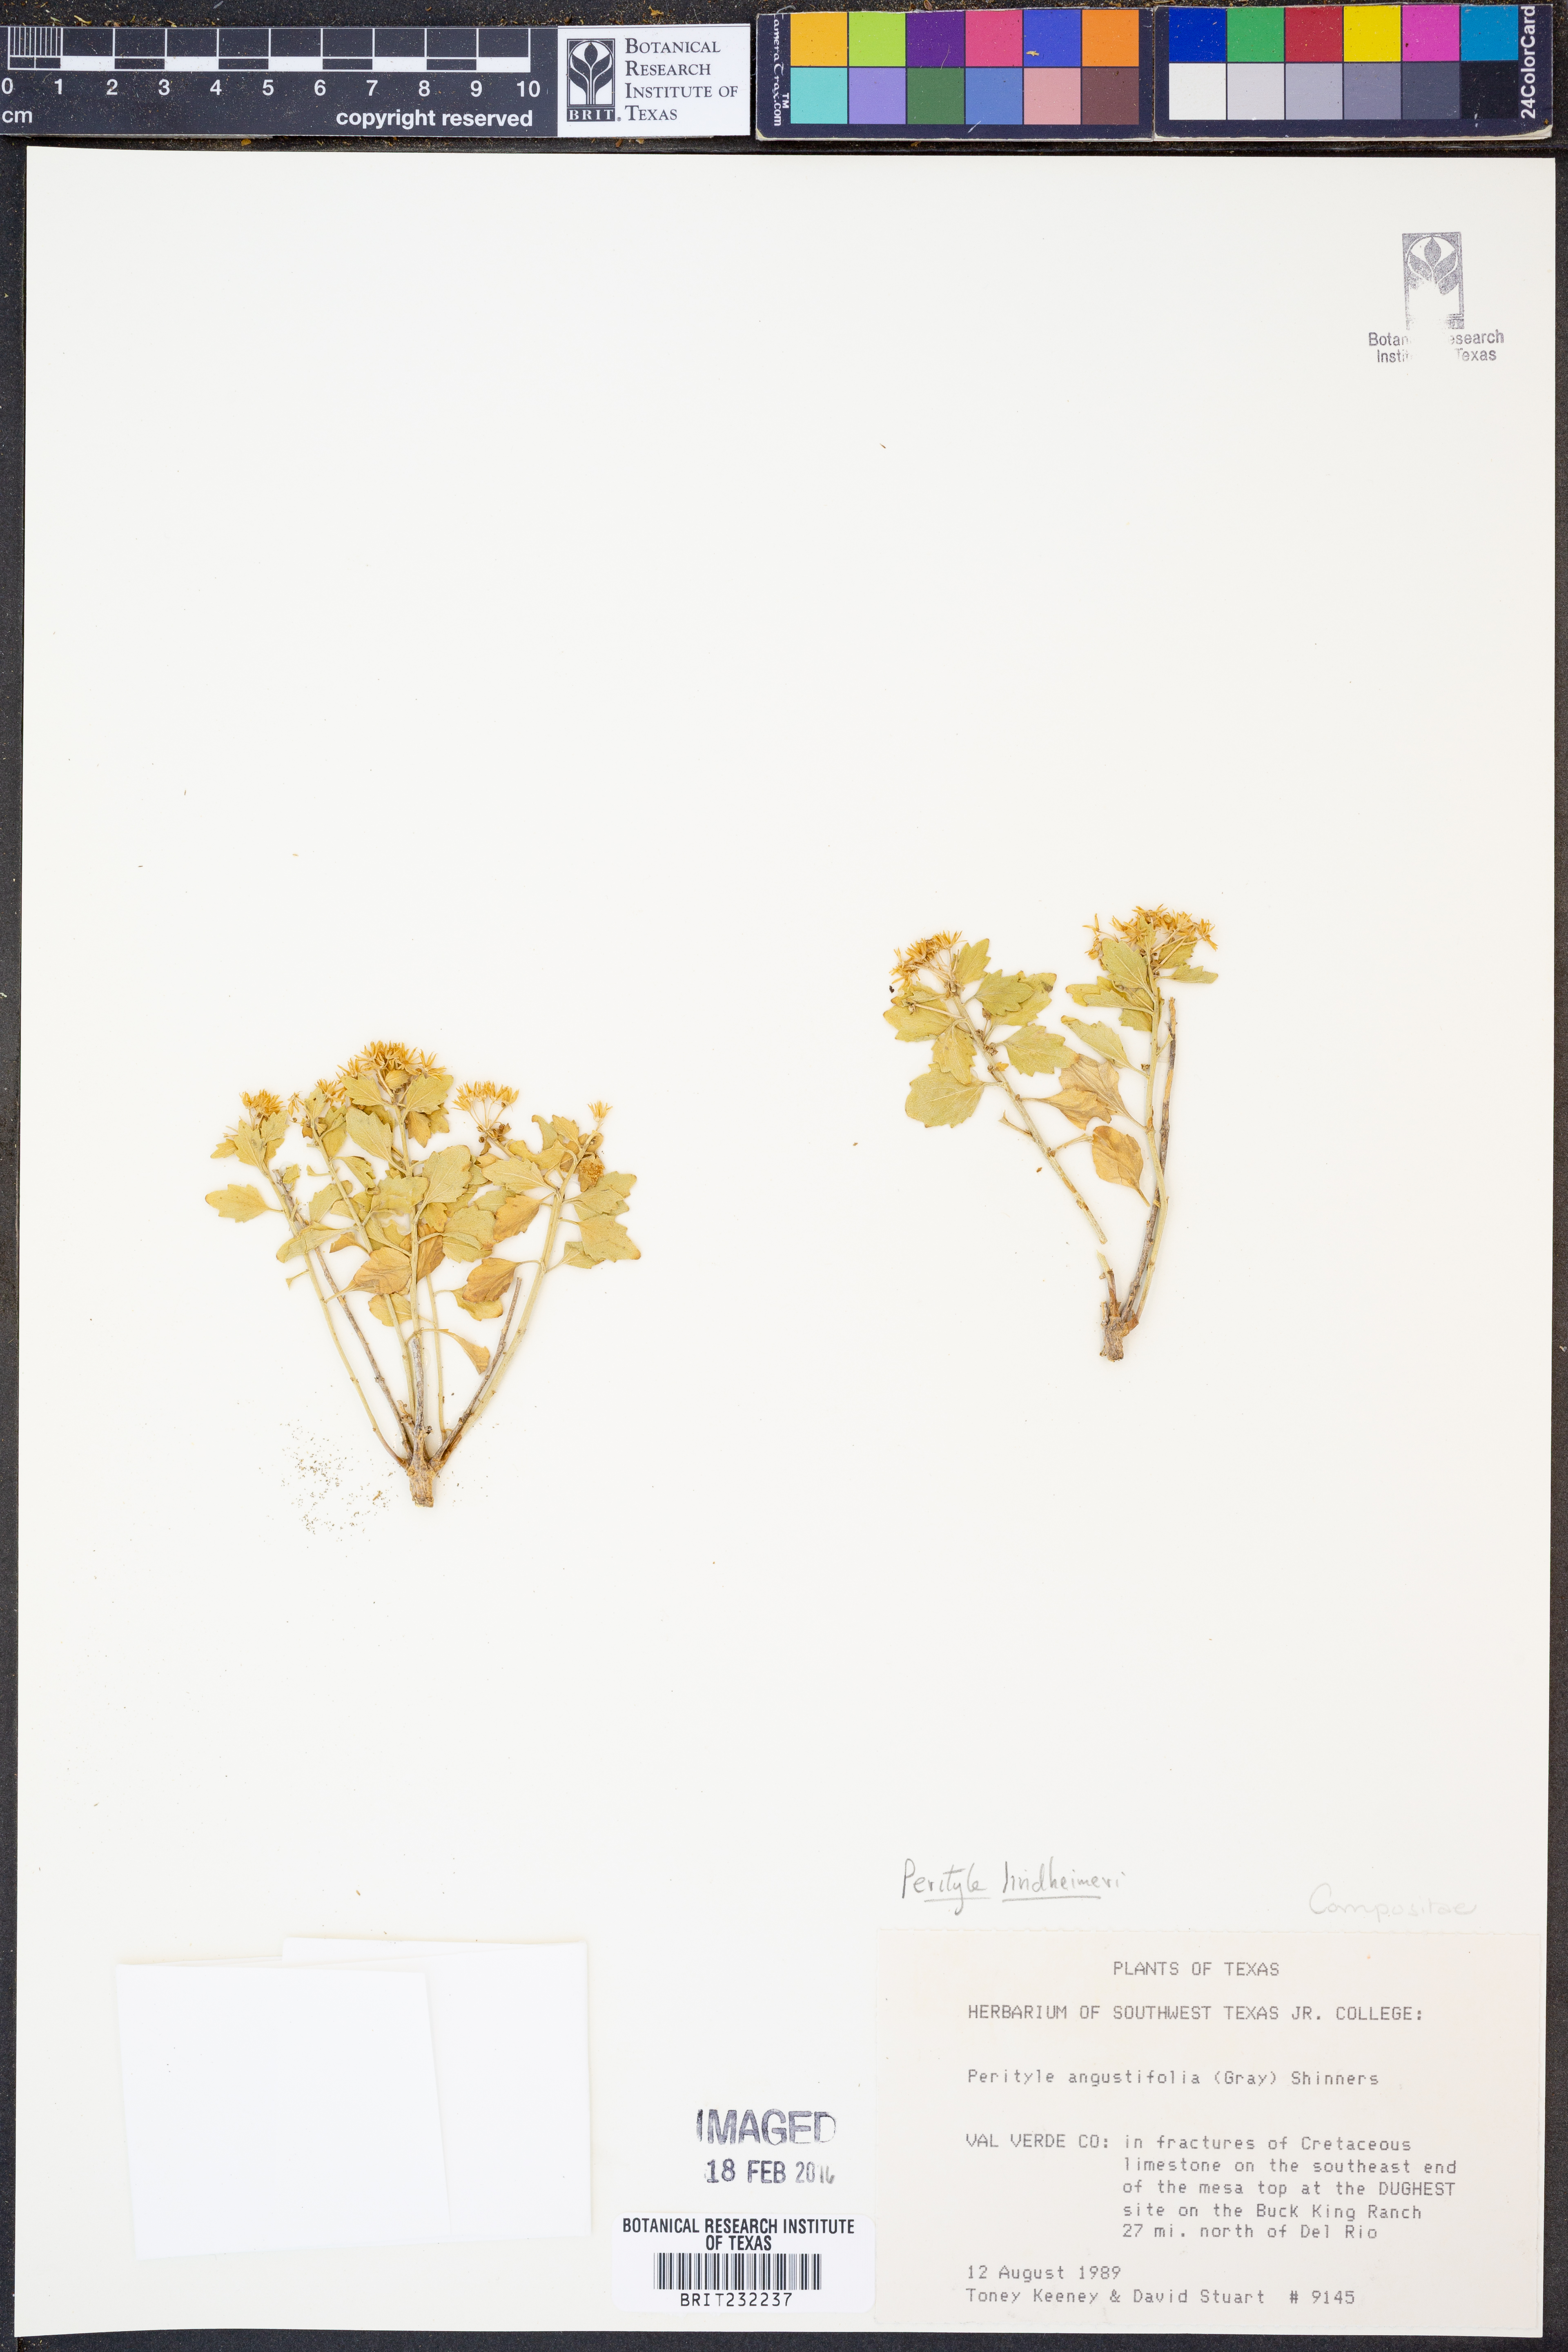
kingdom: Plantae
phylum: Tracheophyta
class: Magnoliopsida
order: Asterales
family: Asteraceae
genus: Laphamia
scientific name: Laphamia lindheimeri
